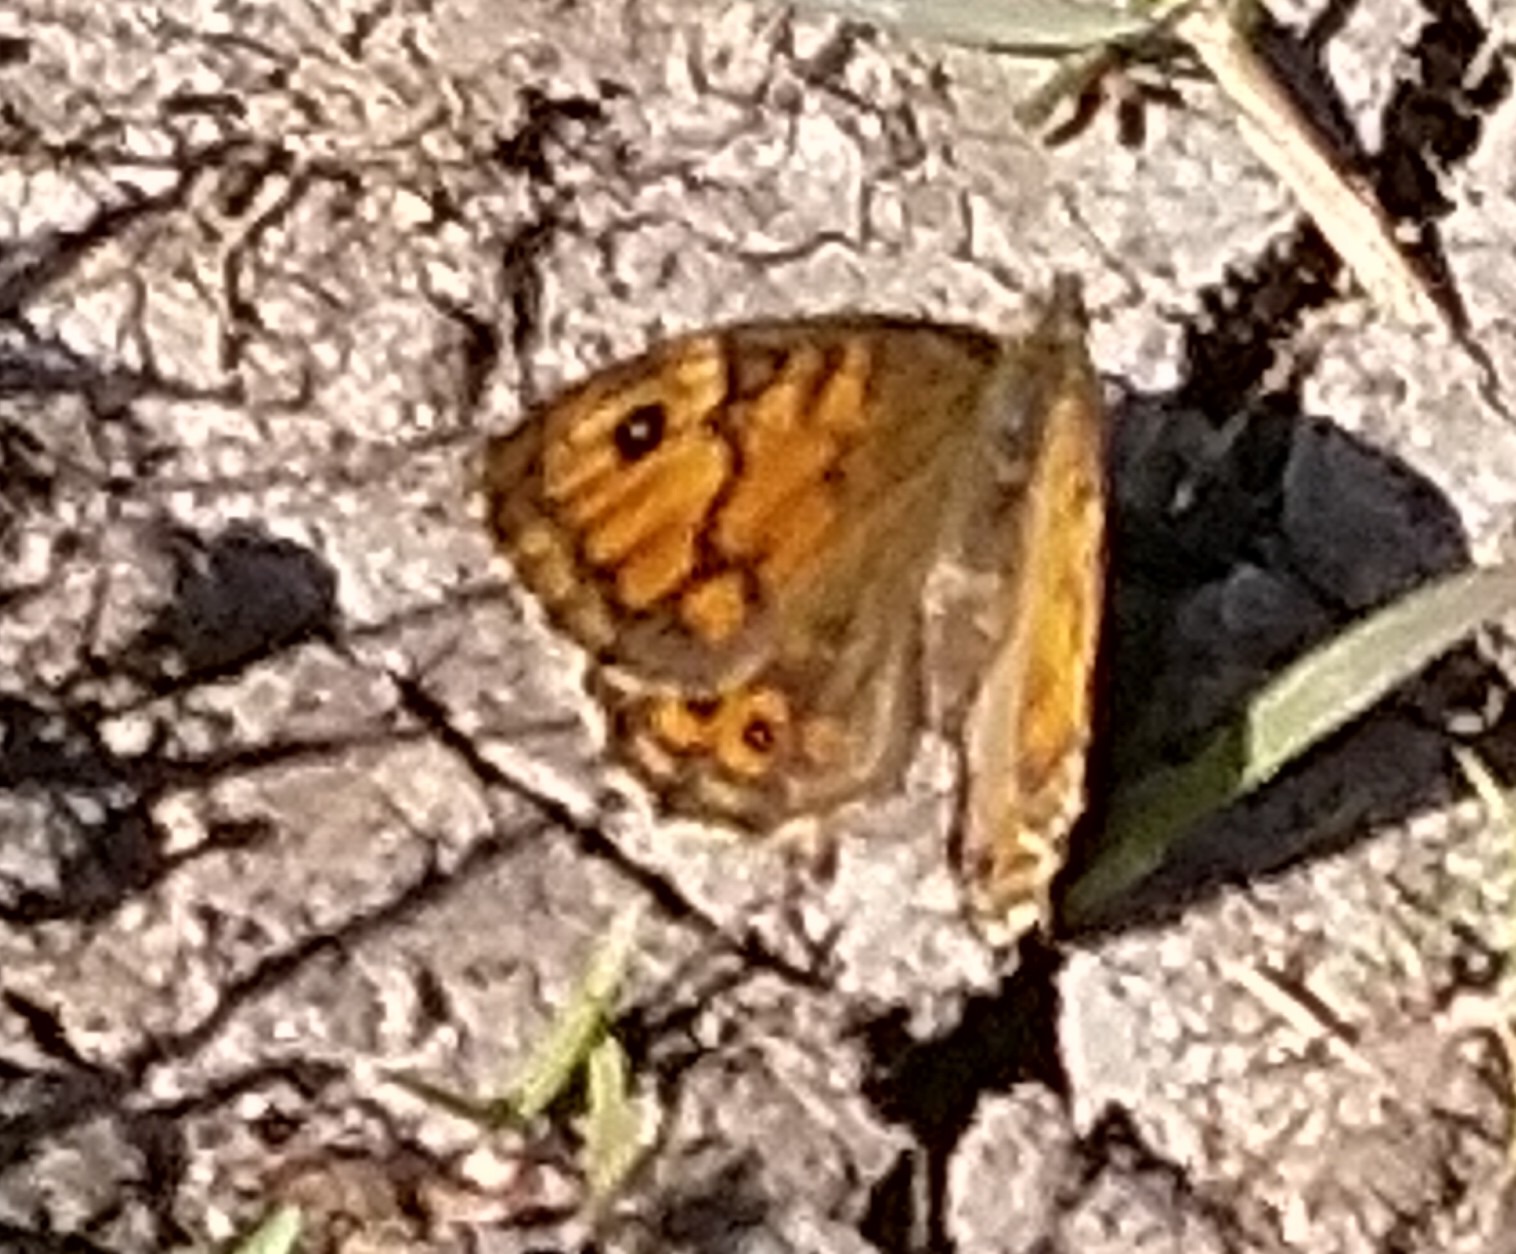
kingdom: Animalia
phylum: Arthropoda
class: Insecta
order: Lepidoptera
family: Nymphalidae
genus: Pararge
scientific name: Pararge Lasiommata megera
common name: Vejrandøje
